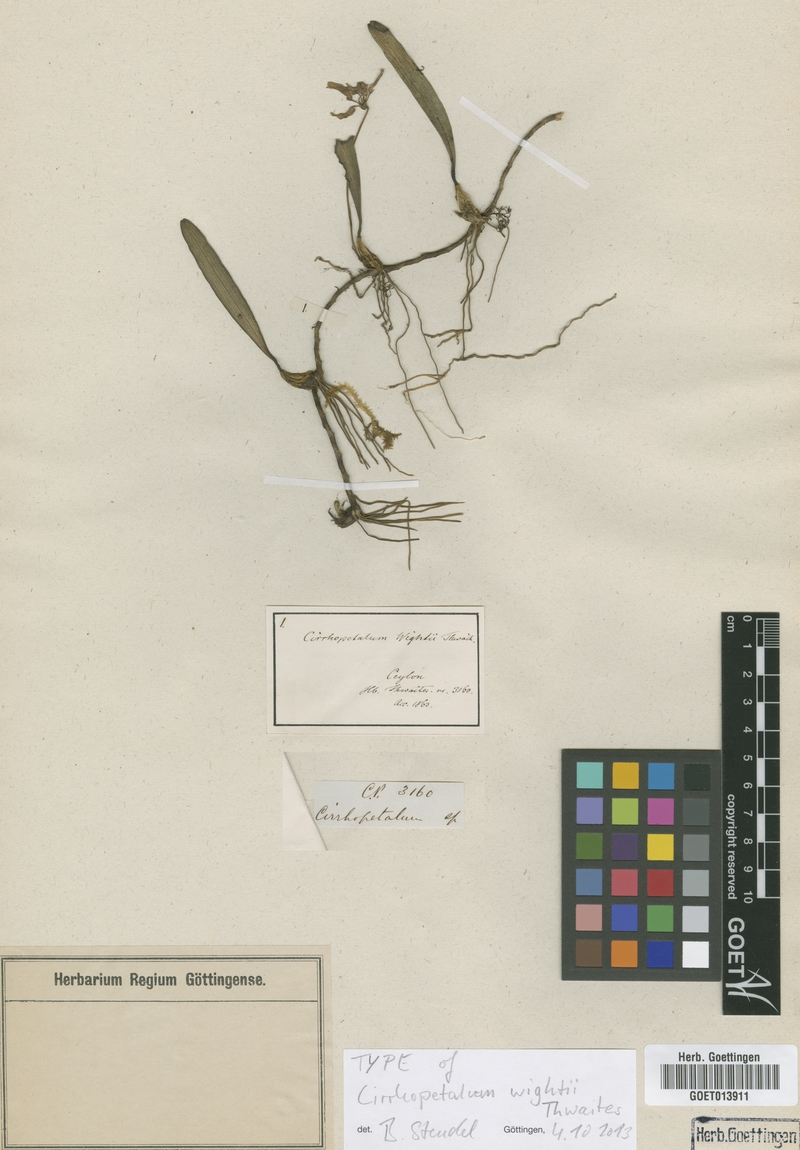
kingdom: Plantae
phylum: Tracheophyta
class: Liliopsida
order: Asparagales
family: Orchidaceae
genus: Bulbophyllum
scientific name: Bulbophyllum elliae
